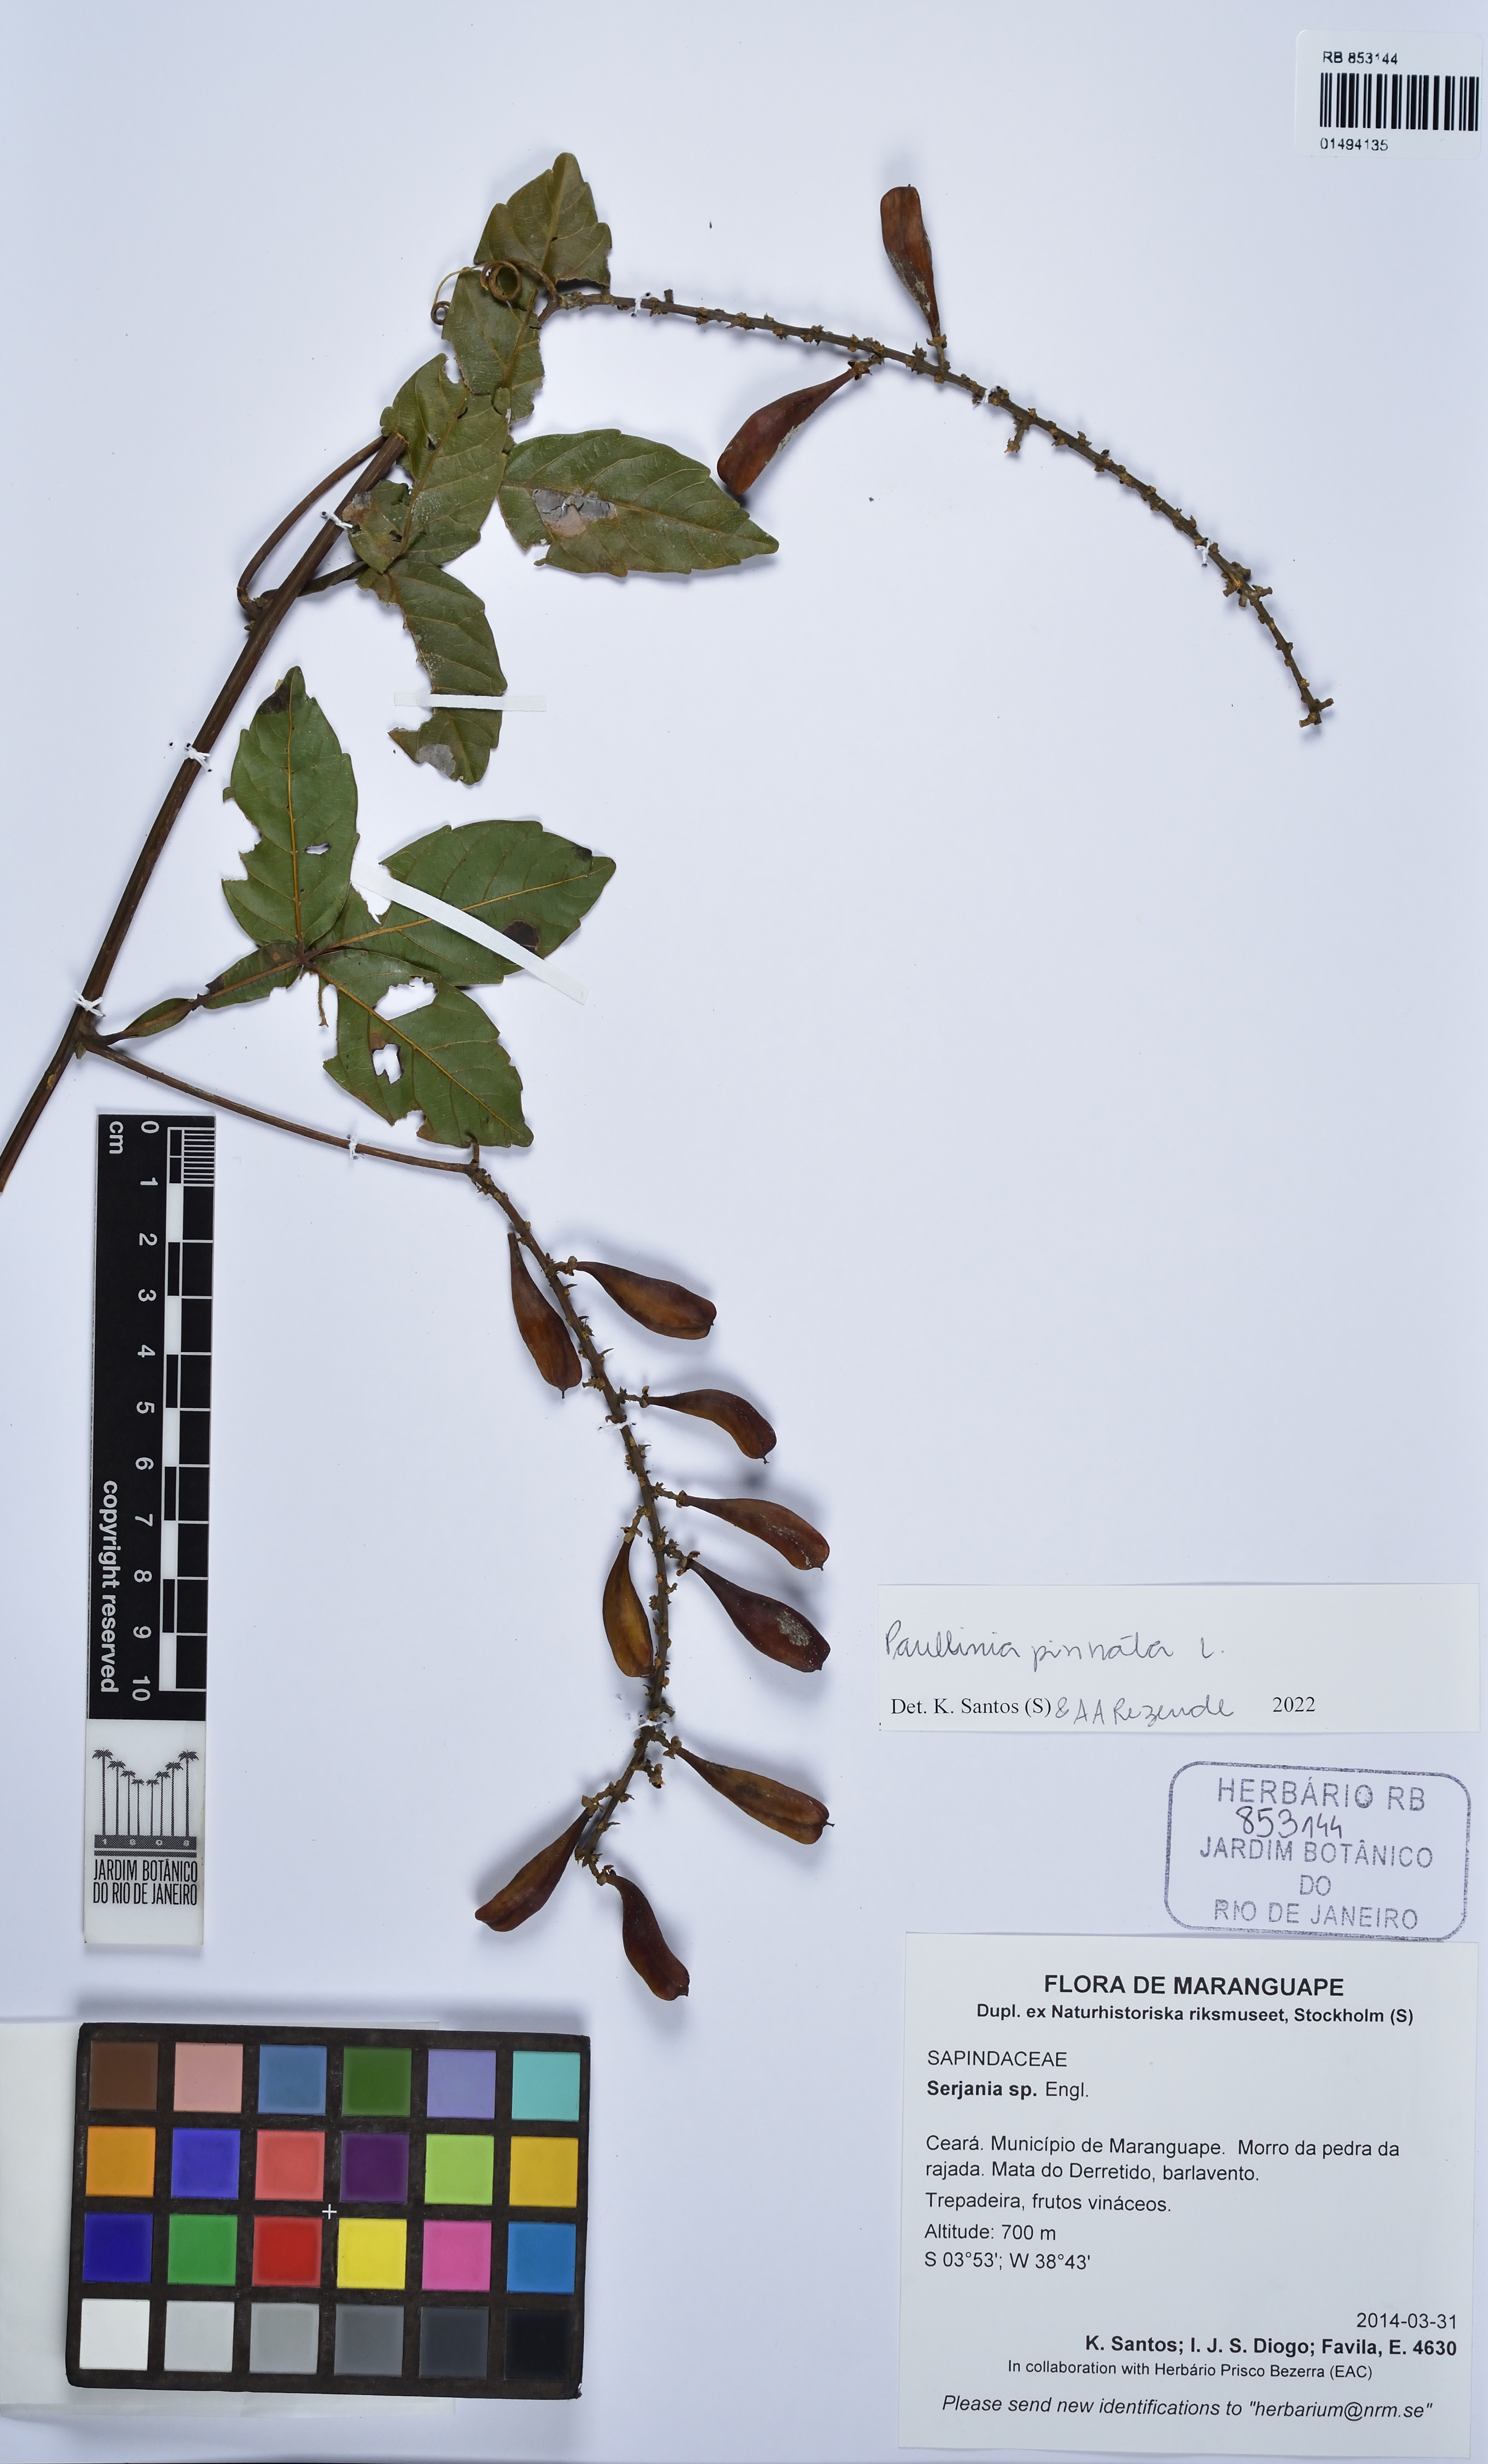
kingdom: Plantae
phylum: Tracheophyta
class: Magnoliopsida
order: Sapindales
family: Sapindaceae
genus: Paullinia
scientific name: Paullinia pinnata
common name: Barbasco
